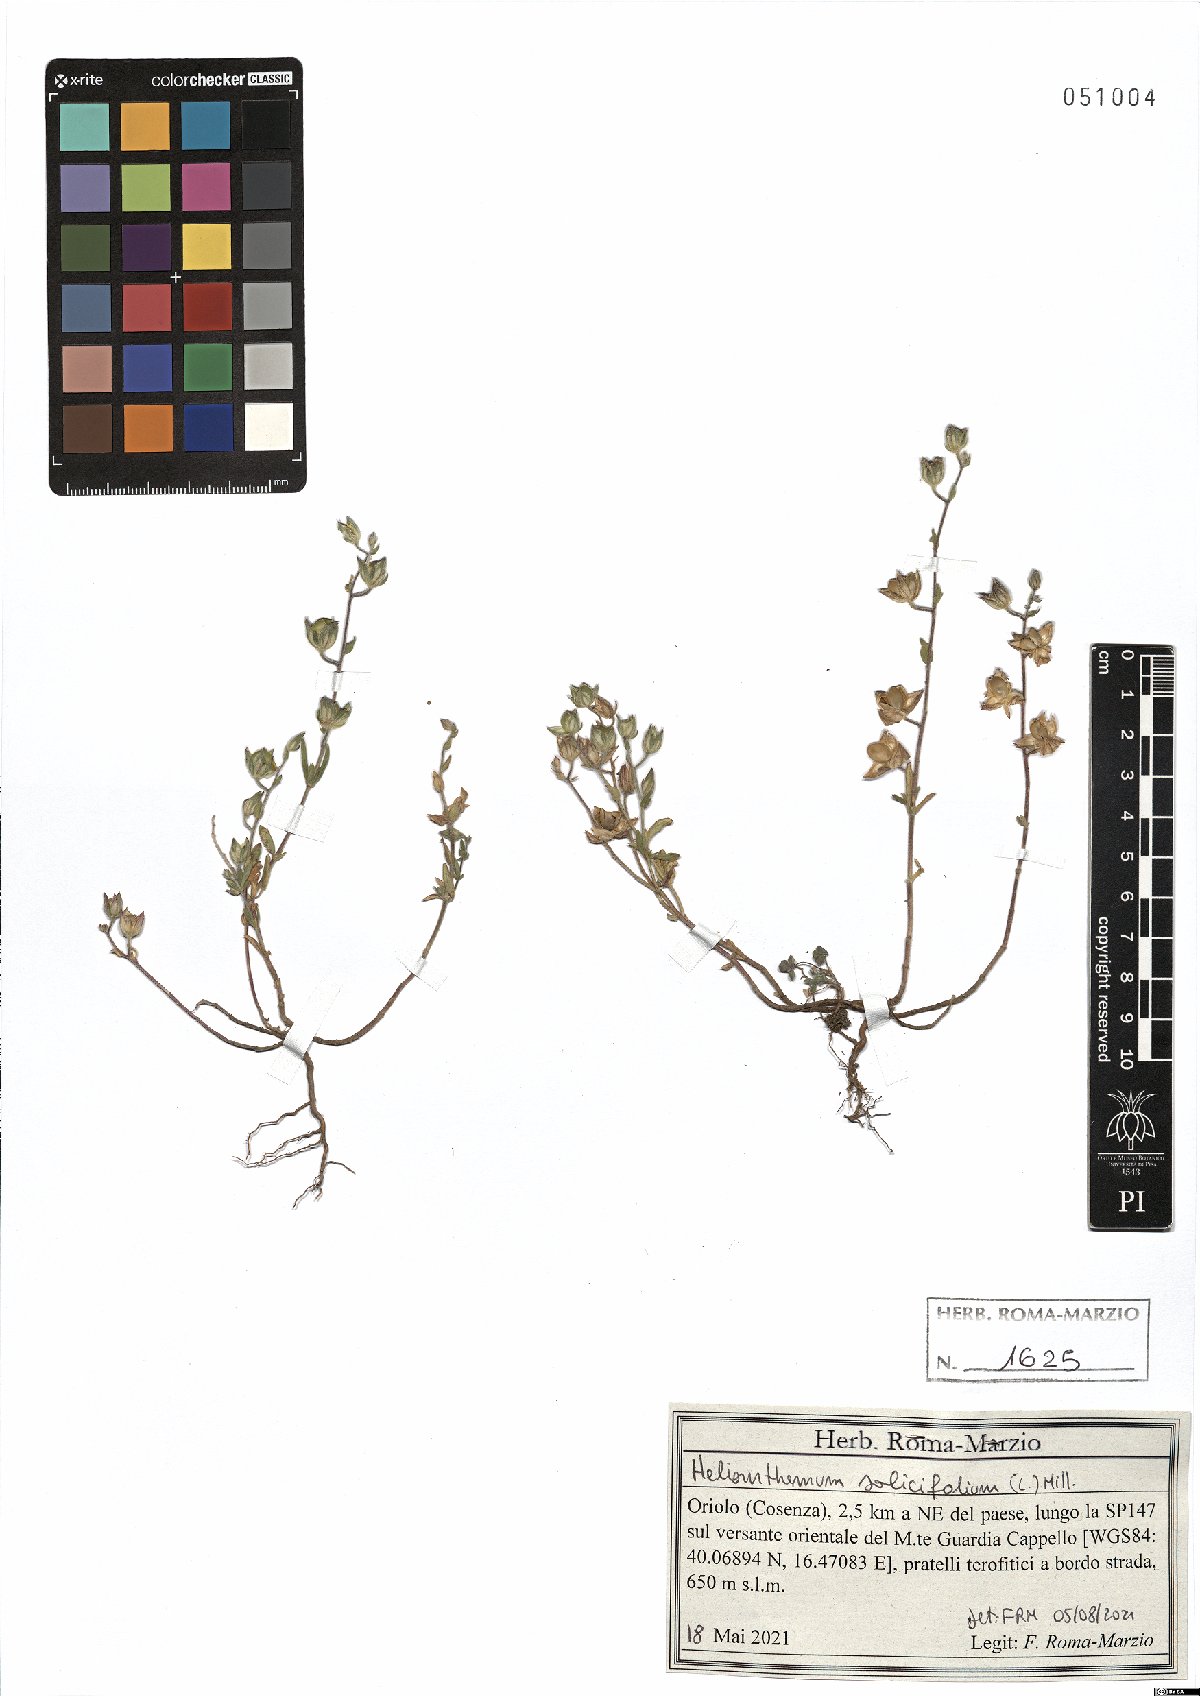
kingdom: Plantae
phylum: Tracheophyta
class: Magnoliopsida
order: Malvales
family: Cistaceae
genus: Helianthemum
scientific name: Helianthemum salicifolium
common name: Willowleaf frostweed
